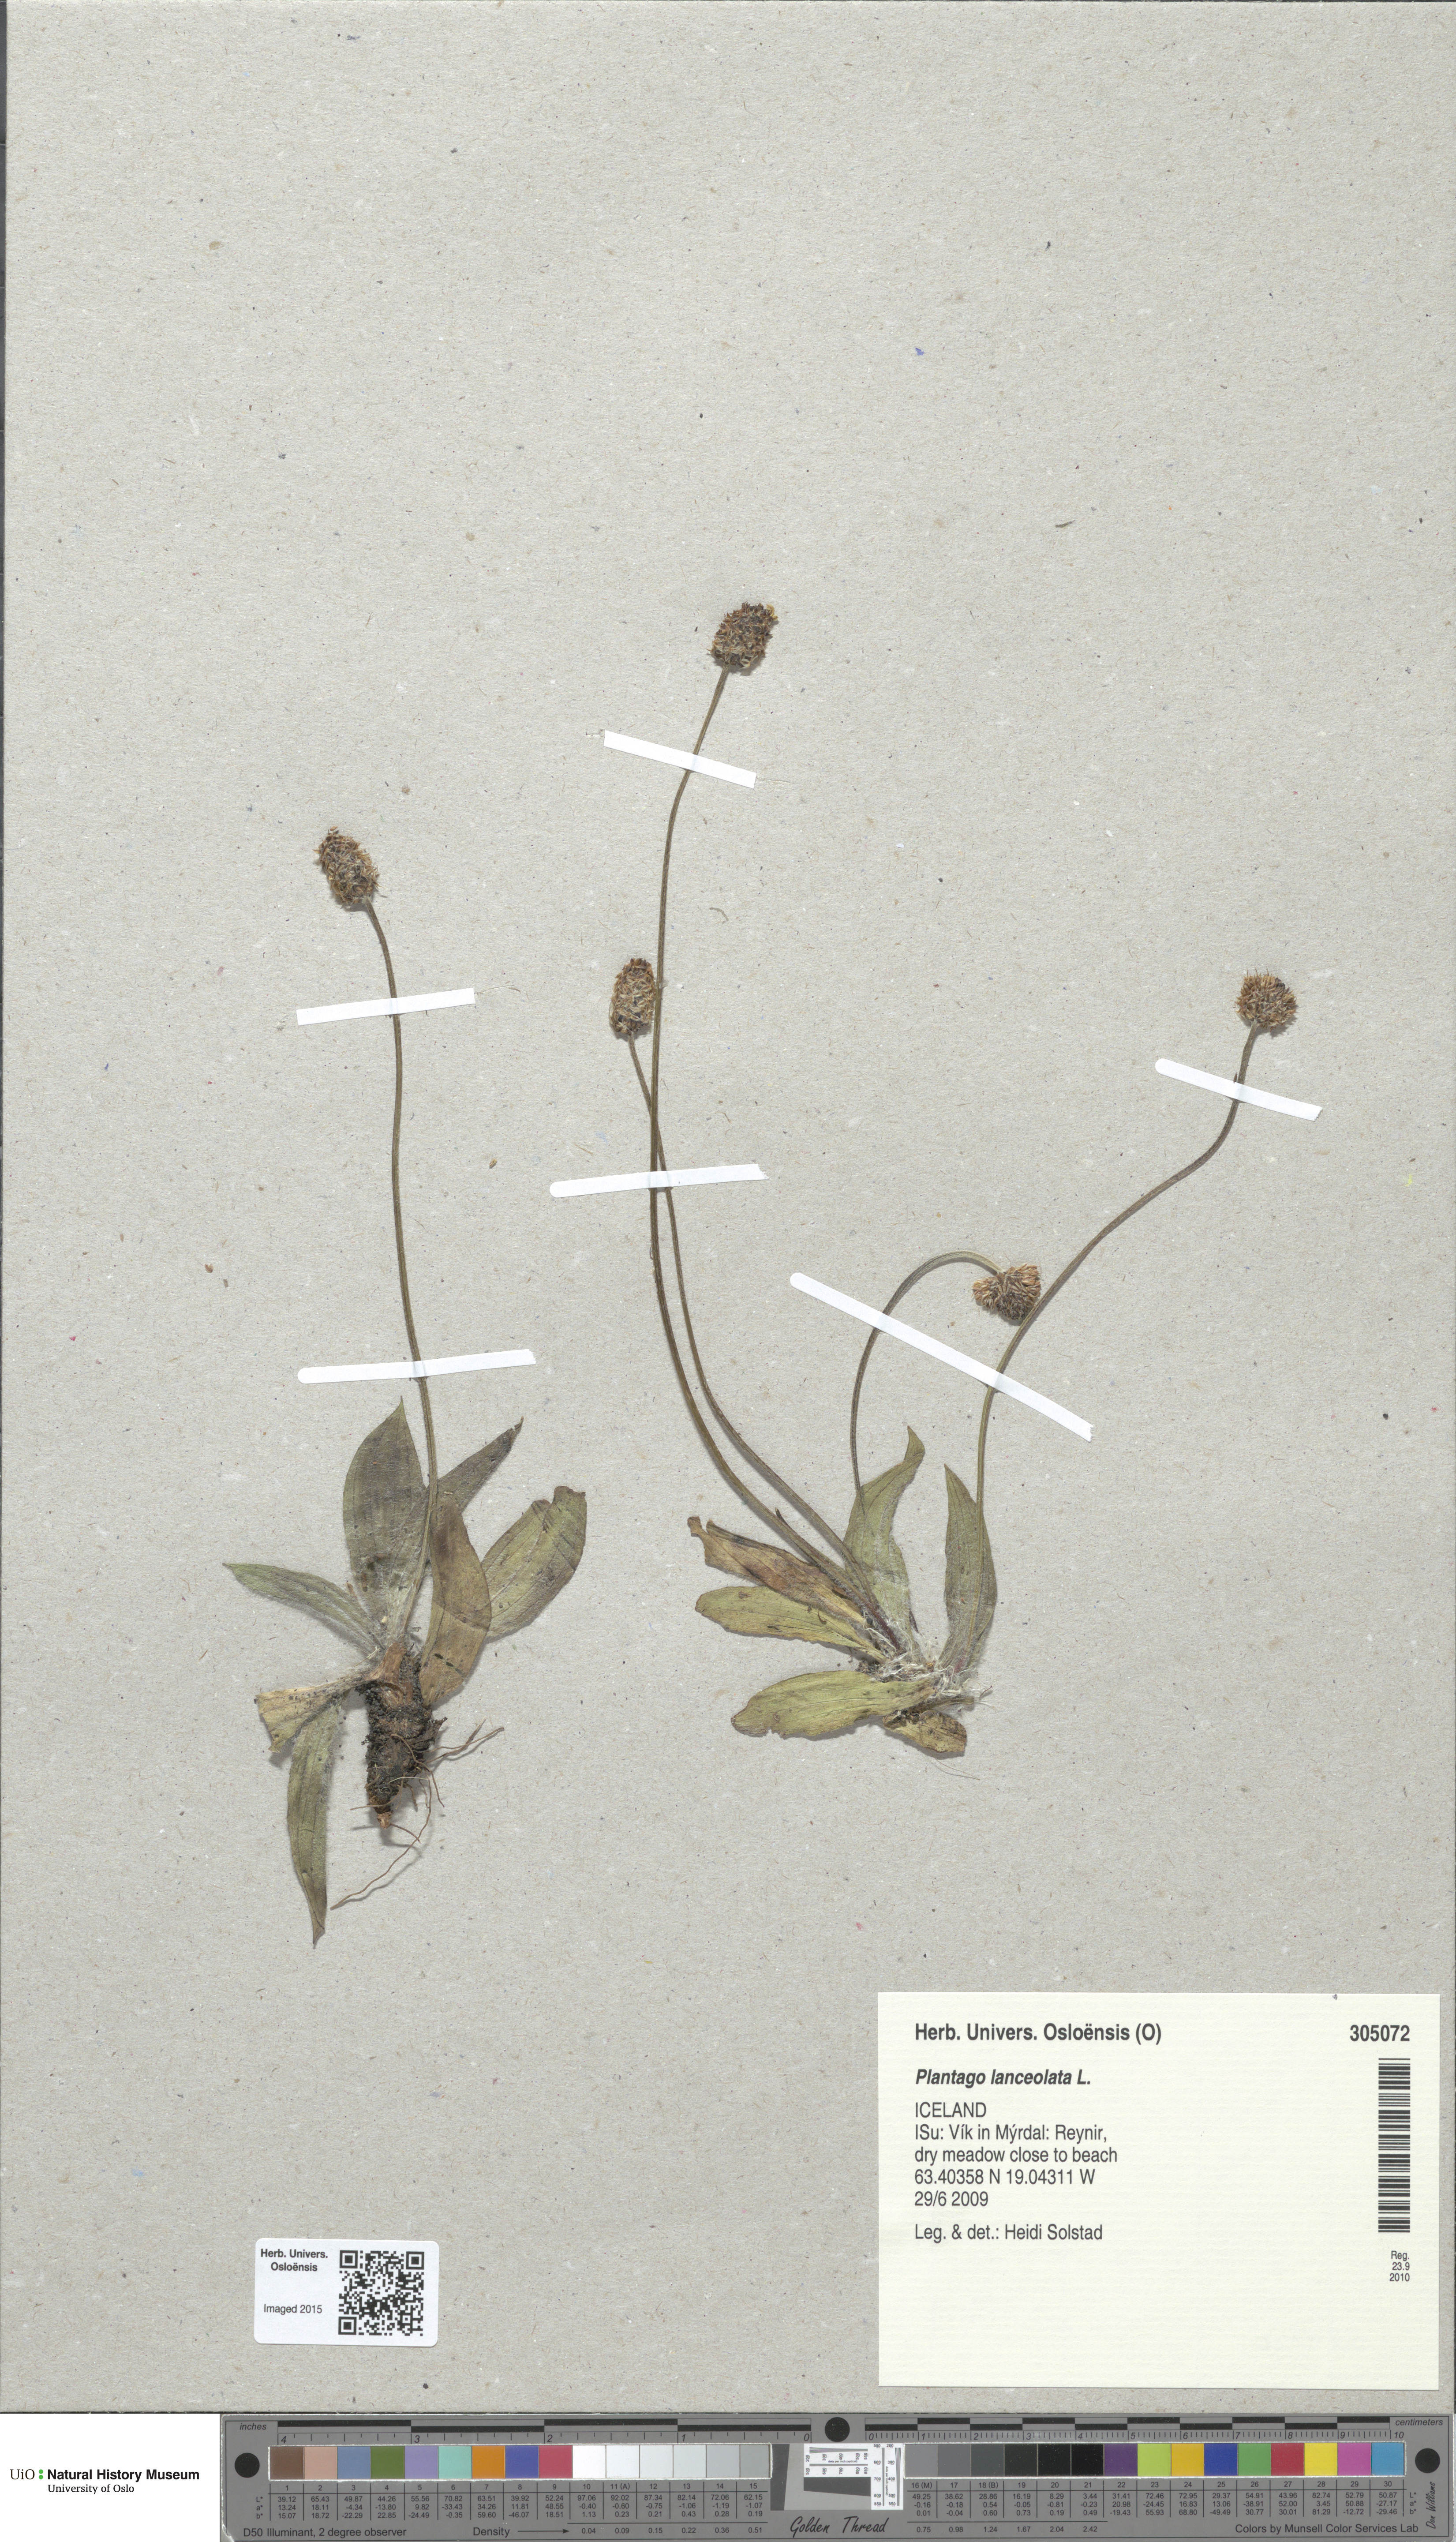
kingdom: Plantae
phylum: Tracheophyta
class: Magnoliopsida
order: Lamiales
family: Plantaginaceae
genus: Plantago
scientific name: Plantago lanceolata
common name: Ribwort plantain
